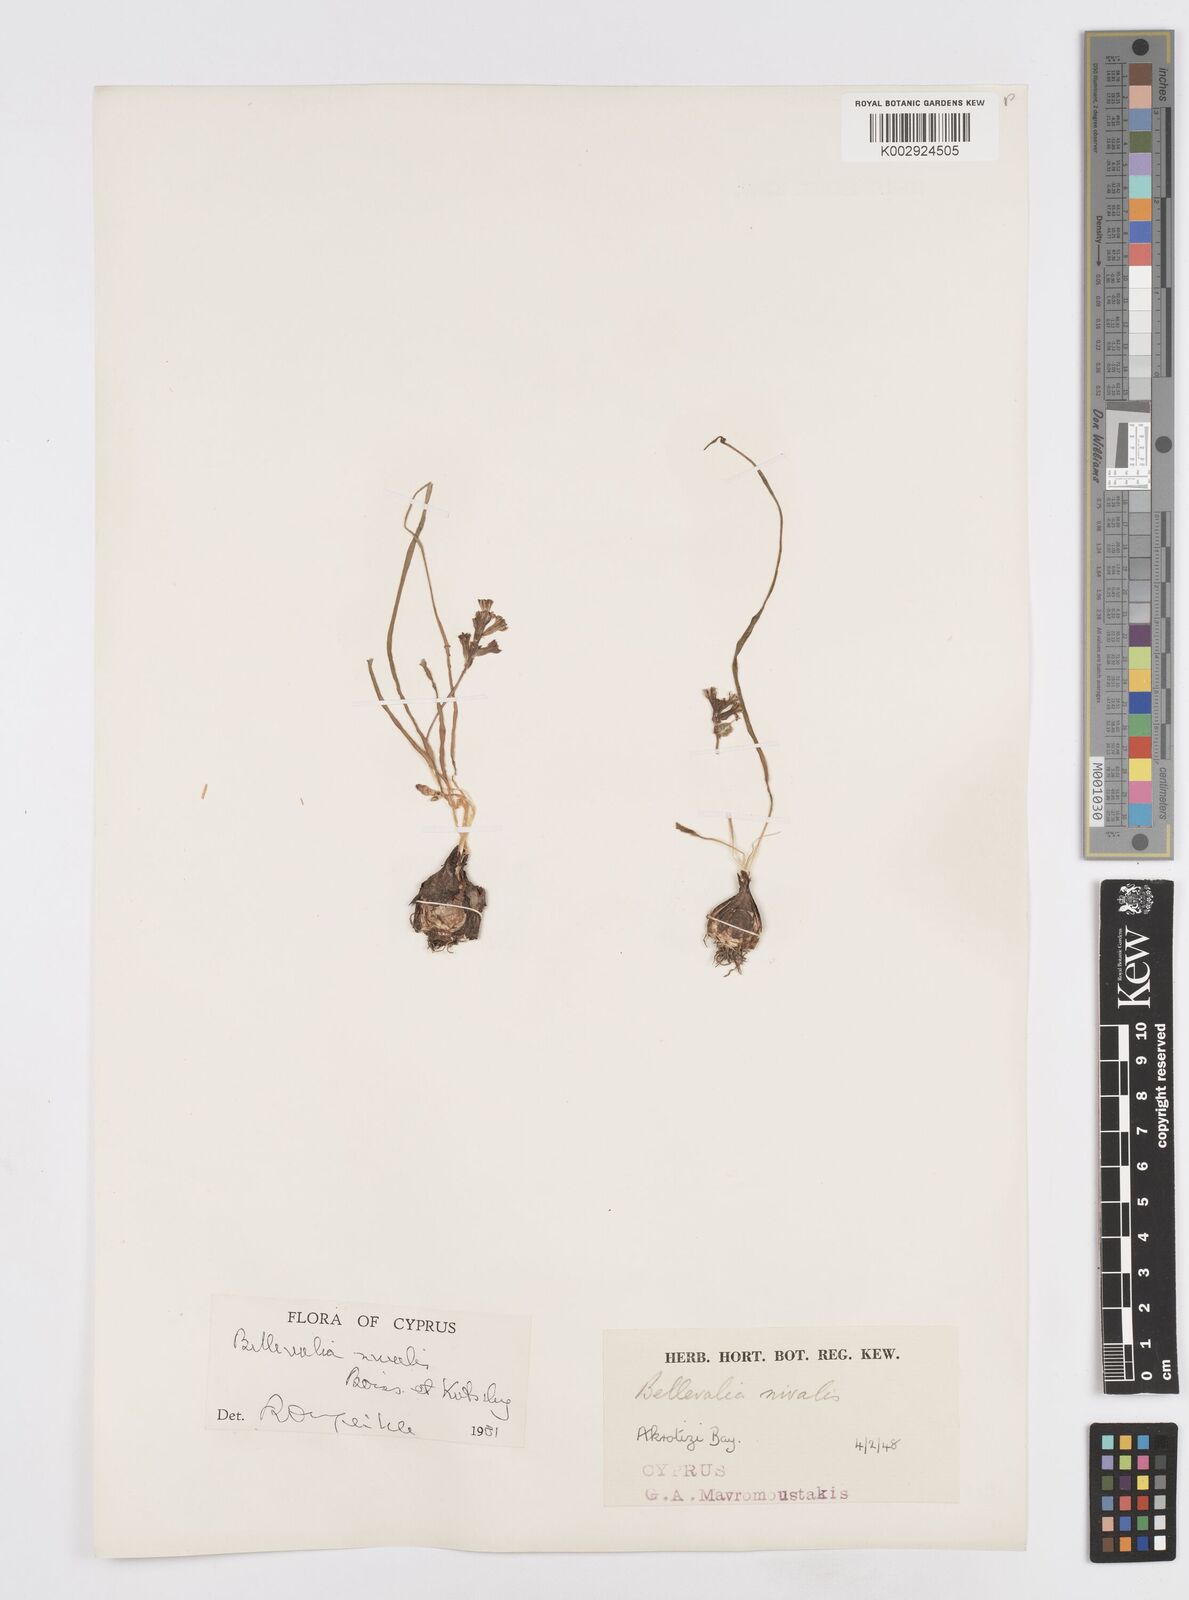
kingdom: Plantae
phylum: Tracheophyta
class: Liliopsida
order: Asparagales
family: Asparagaceae
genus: Bellevalia
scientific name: Bellevalia nivalis
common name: Snow bellevalia
